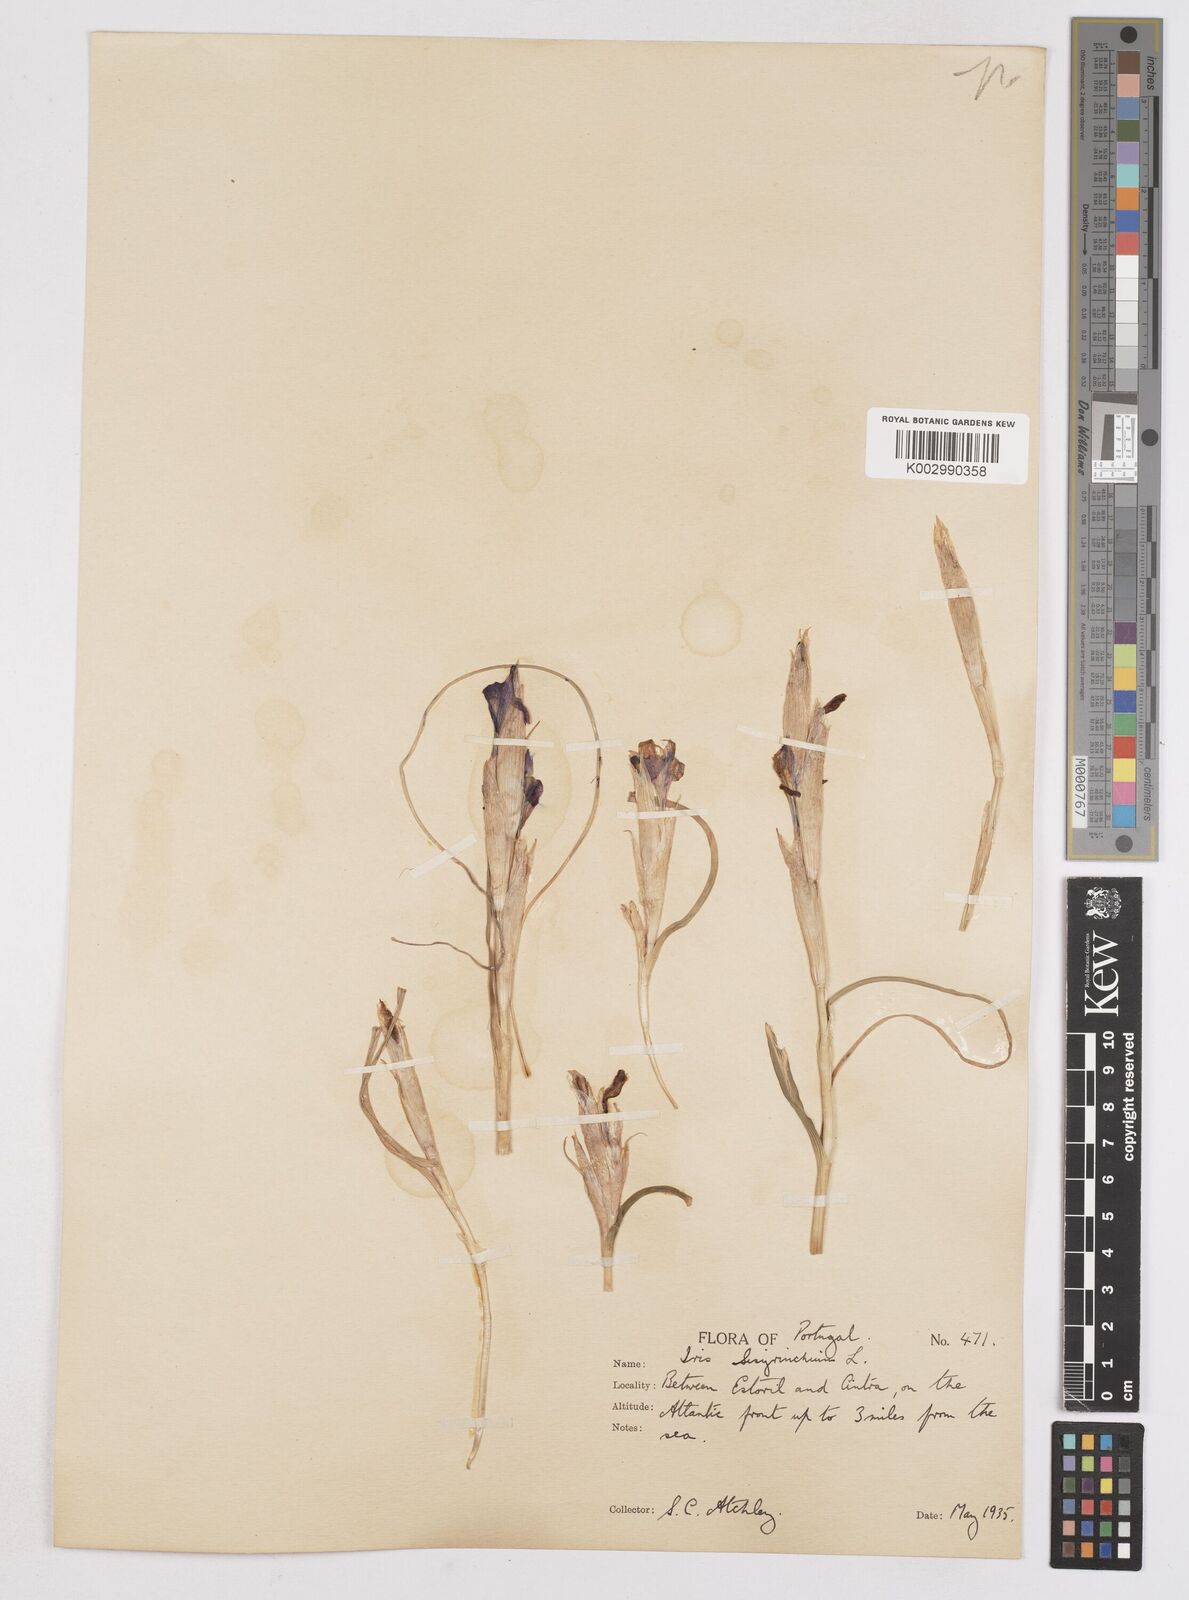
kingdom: Plantae
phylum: Tracheophyta
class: Liliopsida
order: Asparagales
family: Iridaceae
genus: Moraea
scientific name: Moraea sisyrinchium
